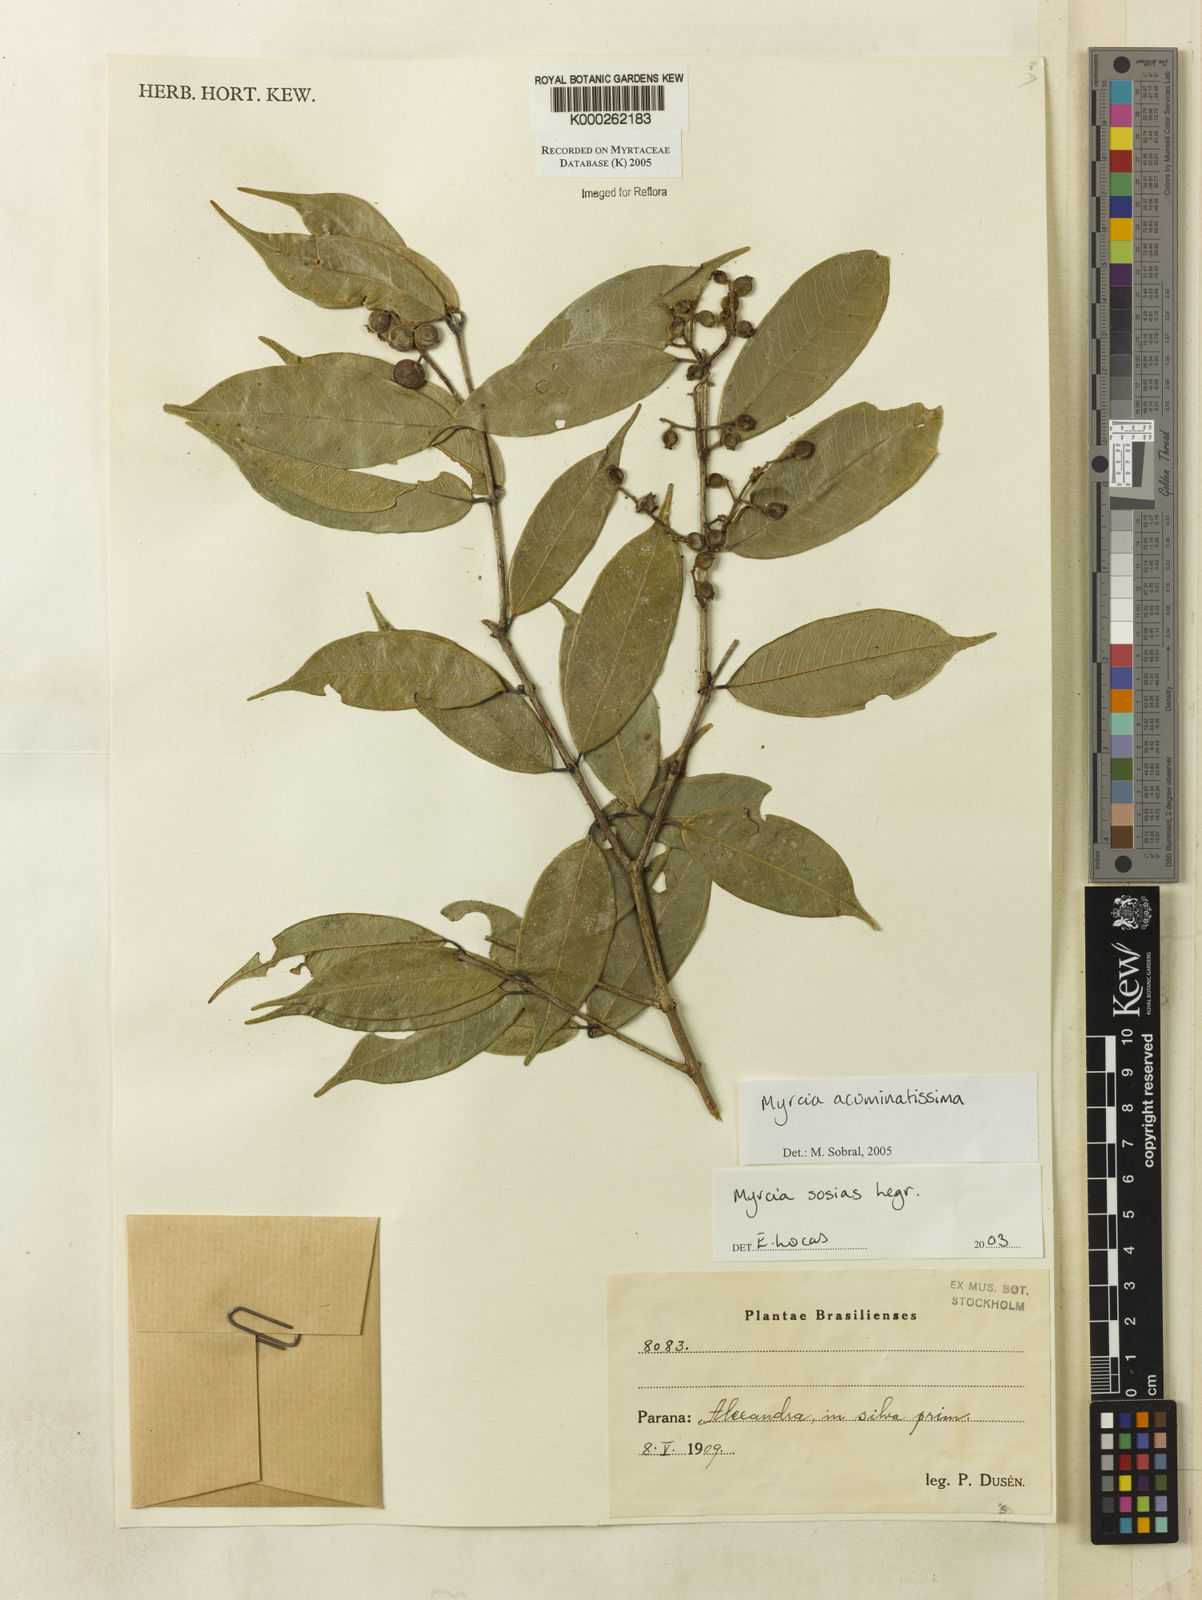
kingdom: Plantae
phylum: Tracheophyta
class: Magnoliopsida
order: Myrtales
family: Myrtaceae
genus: Myrcia
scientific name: Myrcia racemosa
